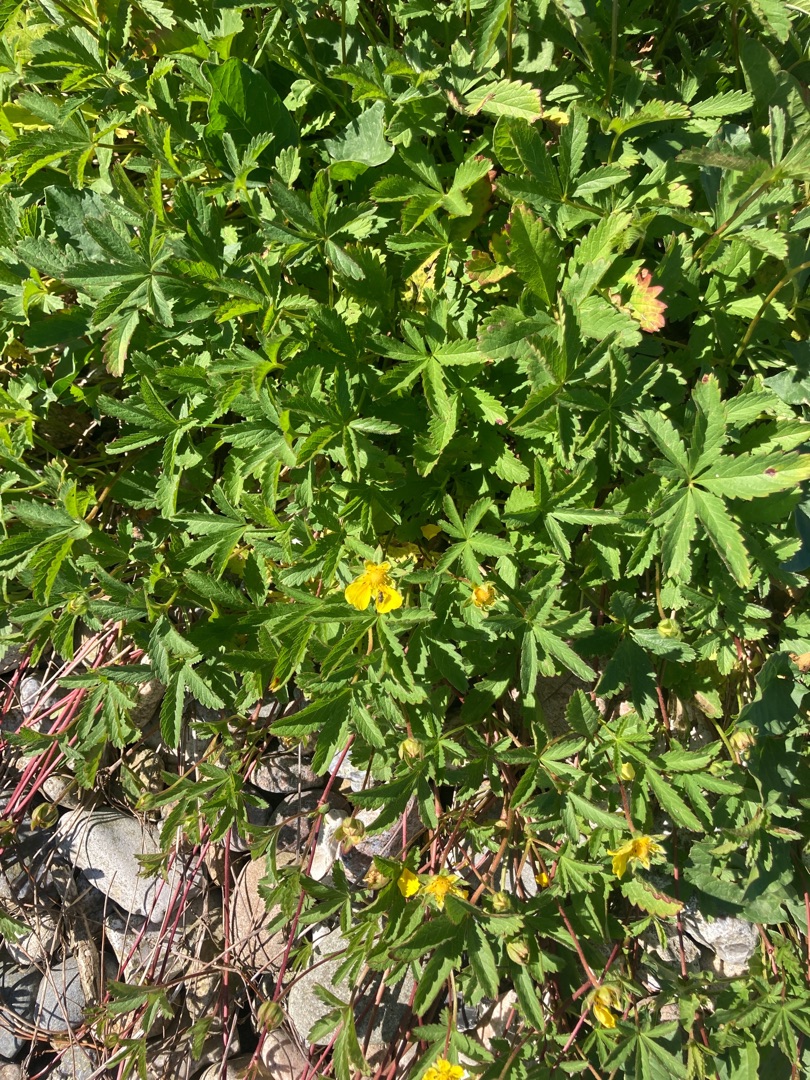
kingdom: Plantae
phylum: Tracheophyta
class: Magnoliopsida
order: Rosales
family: Rosaceae
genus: Potentilla
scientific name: Potentilla reptans
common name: Krybende potentil
